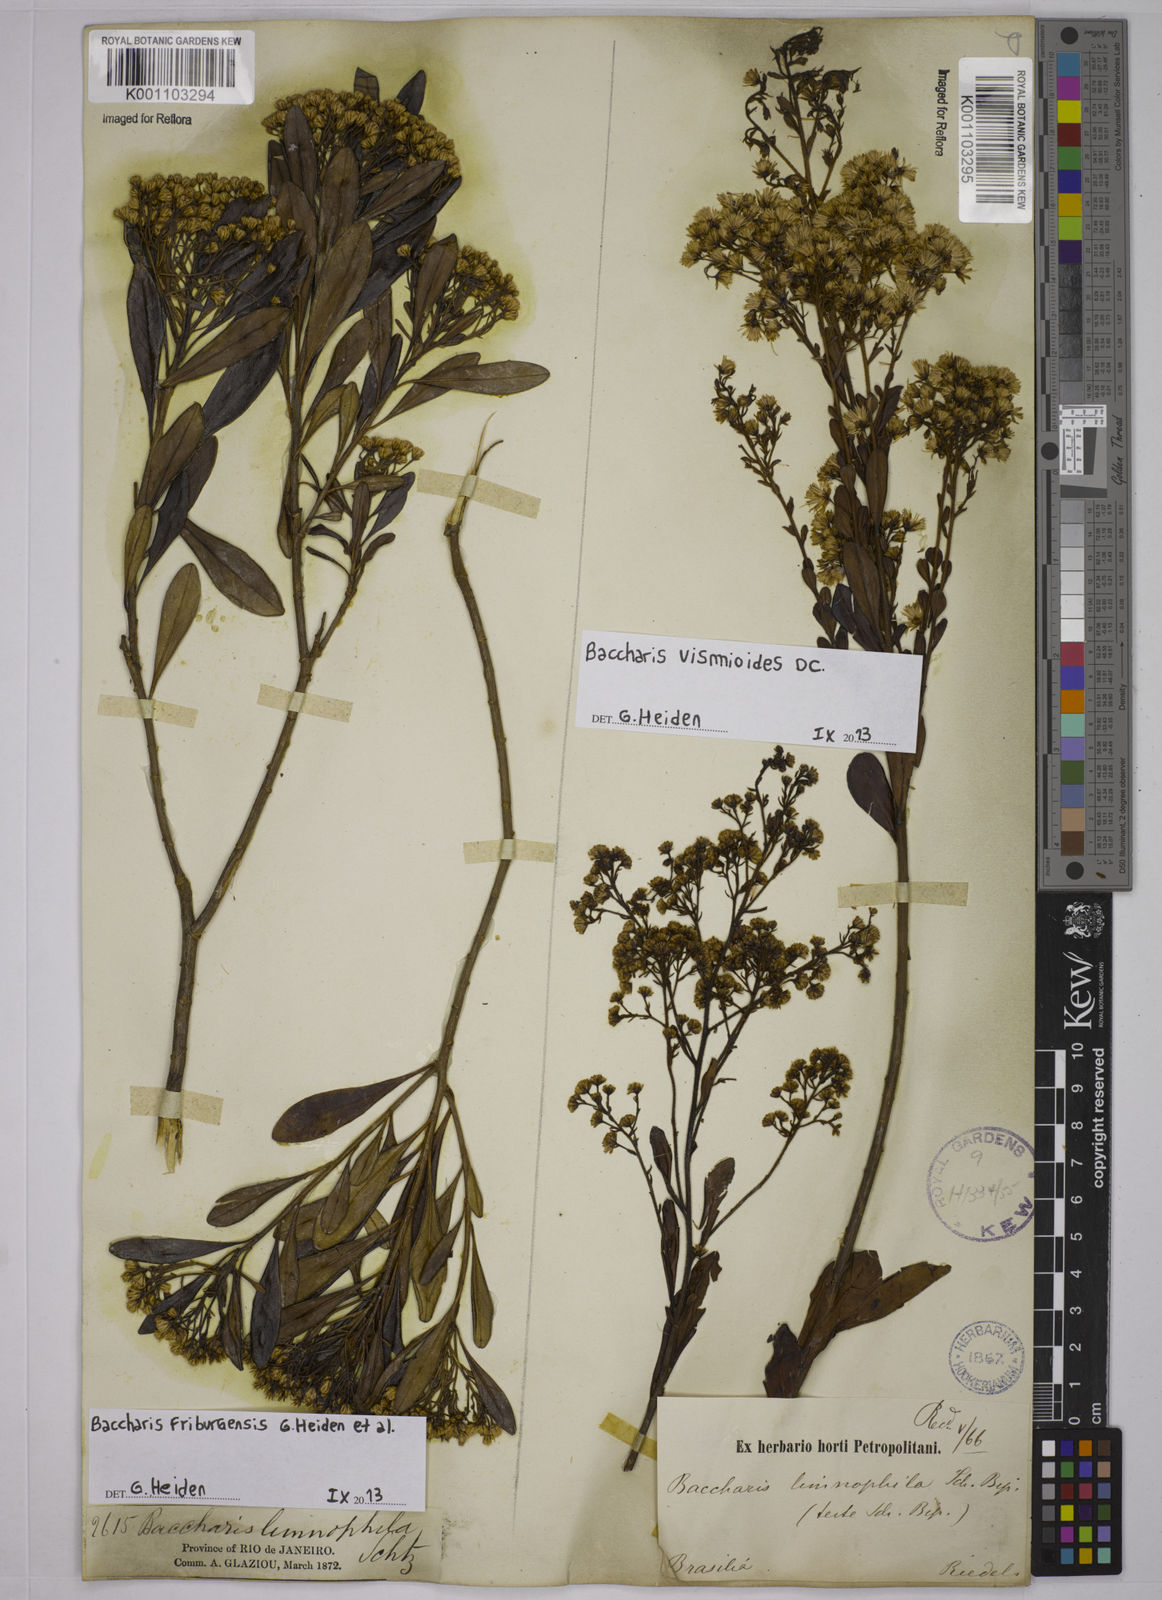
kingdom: Plantae
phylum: Tracheophyta
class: Magnoliopsida
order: Asterales
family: Asteraceae
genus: Baccharis
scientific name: Baccharis vismioides
